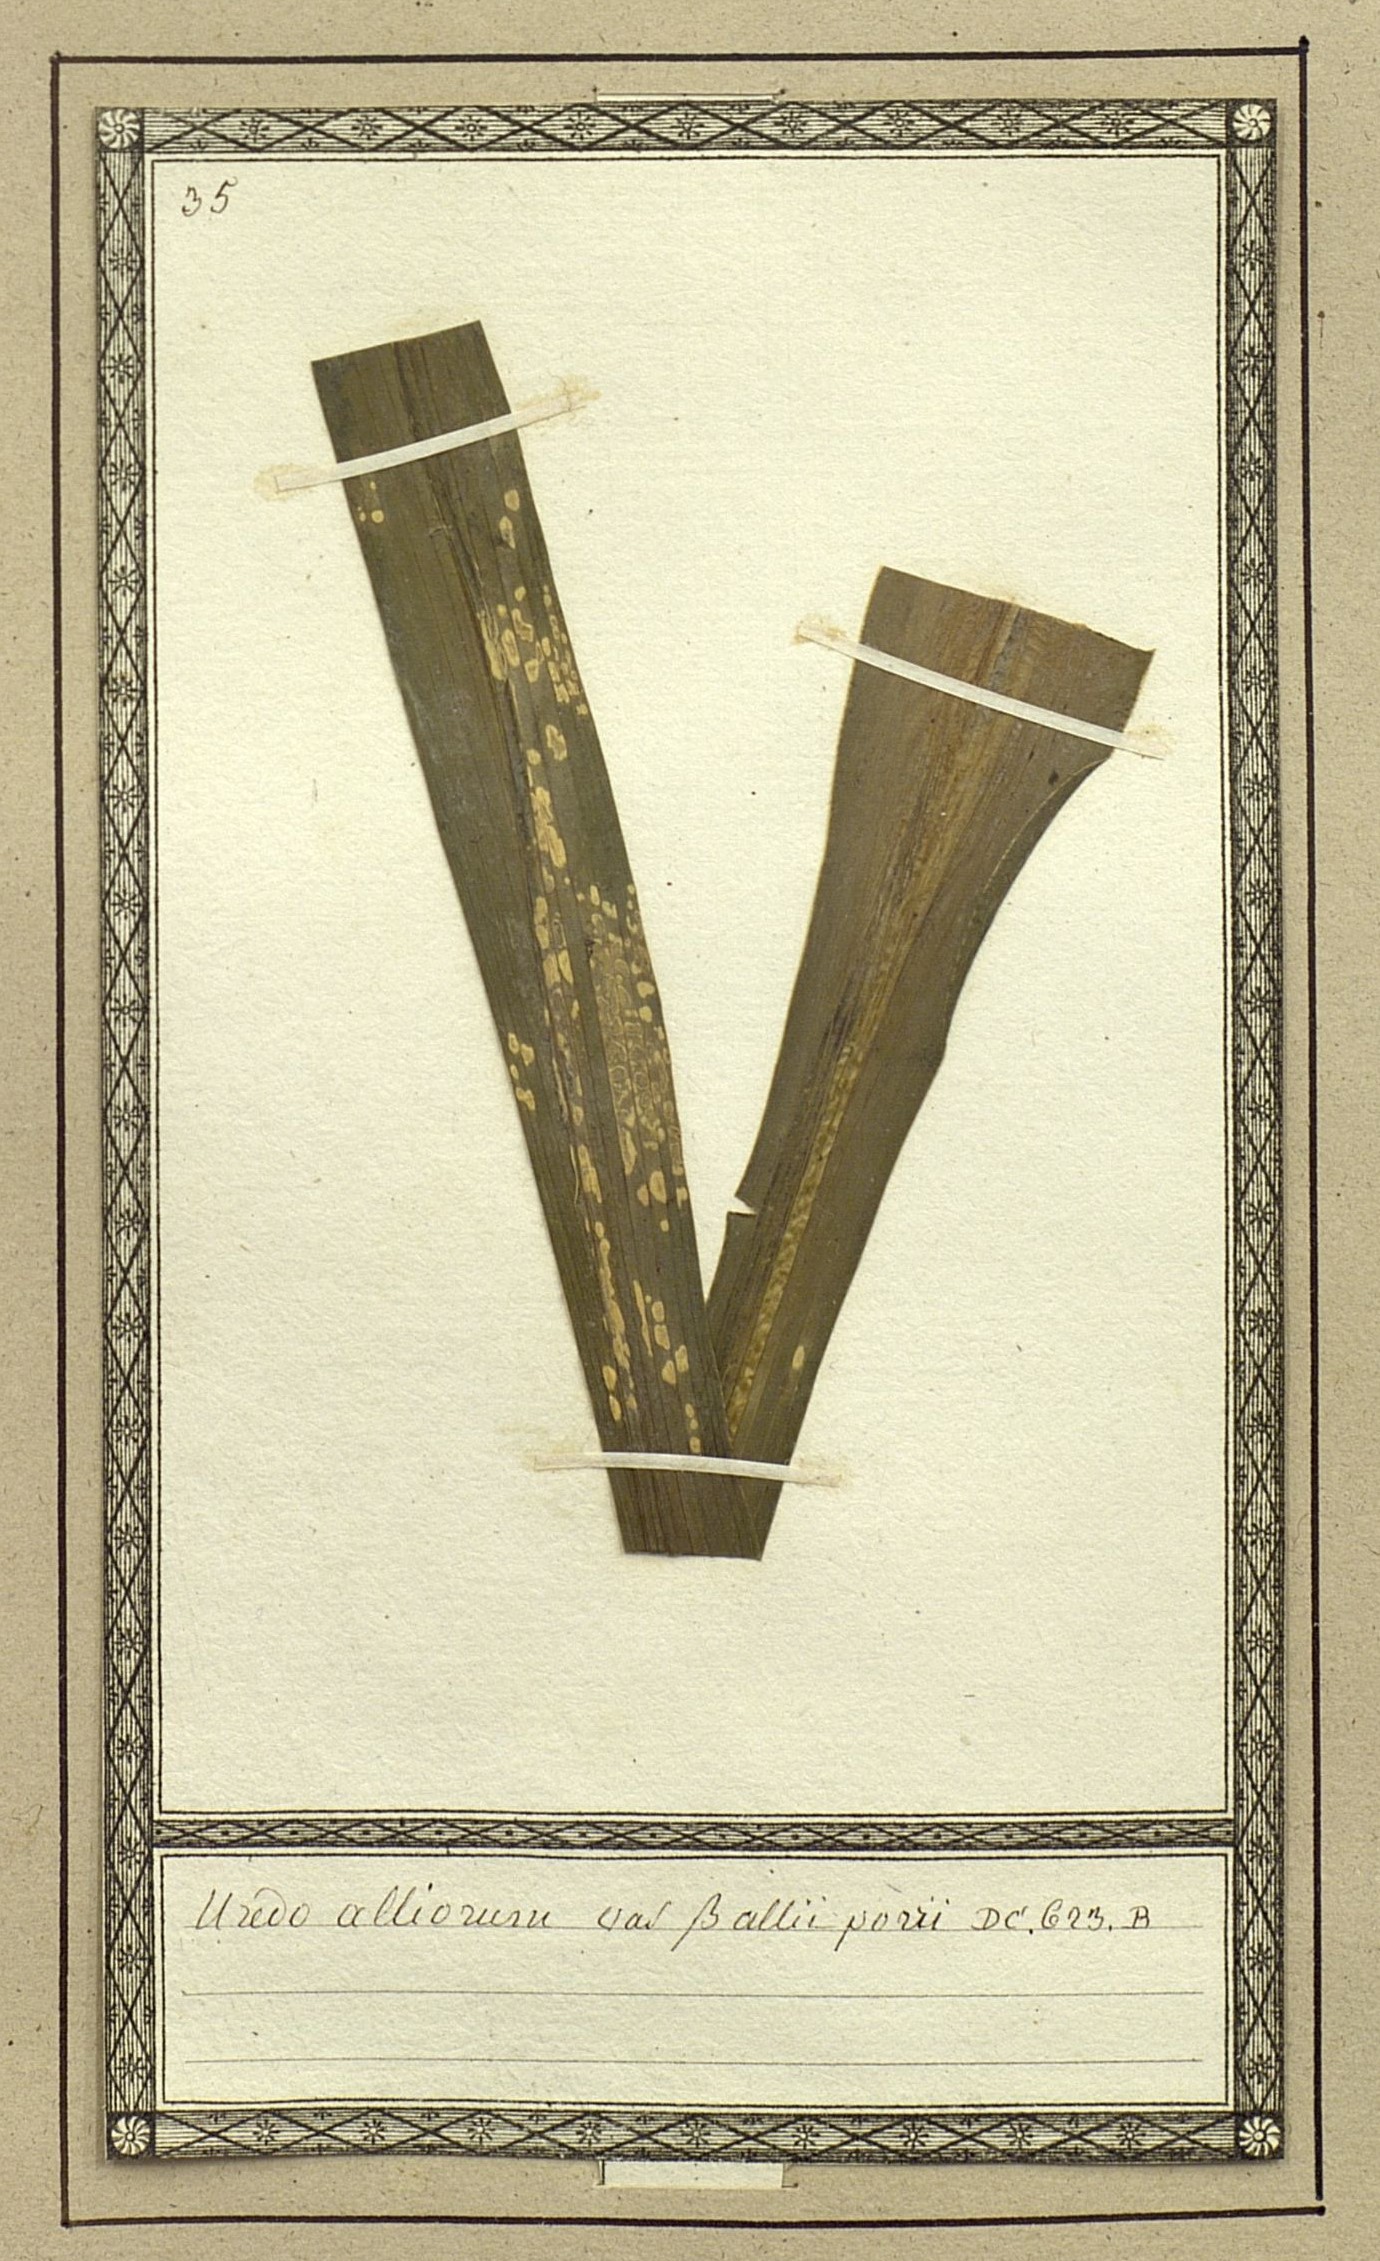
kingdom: Fungi
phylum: Basidiomycota
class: Pucciniomycetes
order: Pucciniales
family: Pucciniaceae
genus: Puccinia
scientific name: Puccinia porri
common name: Allium rust
